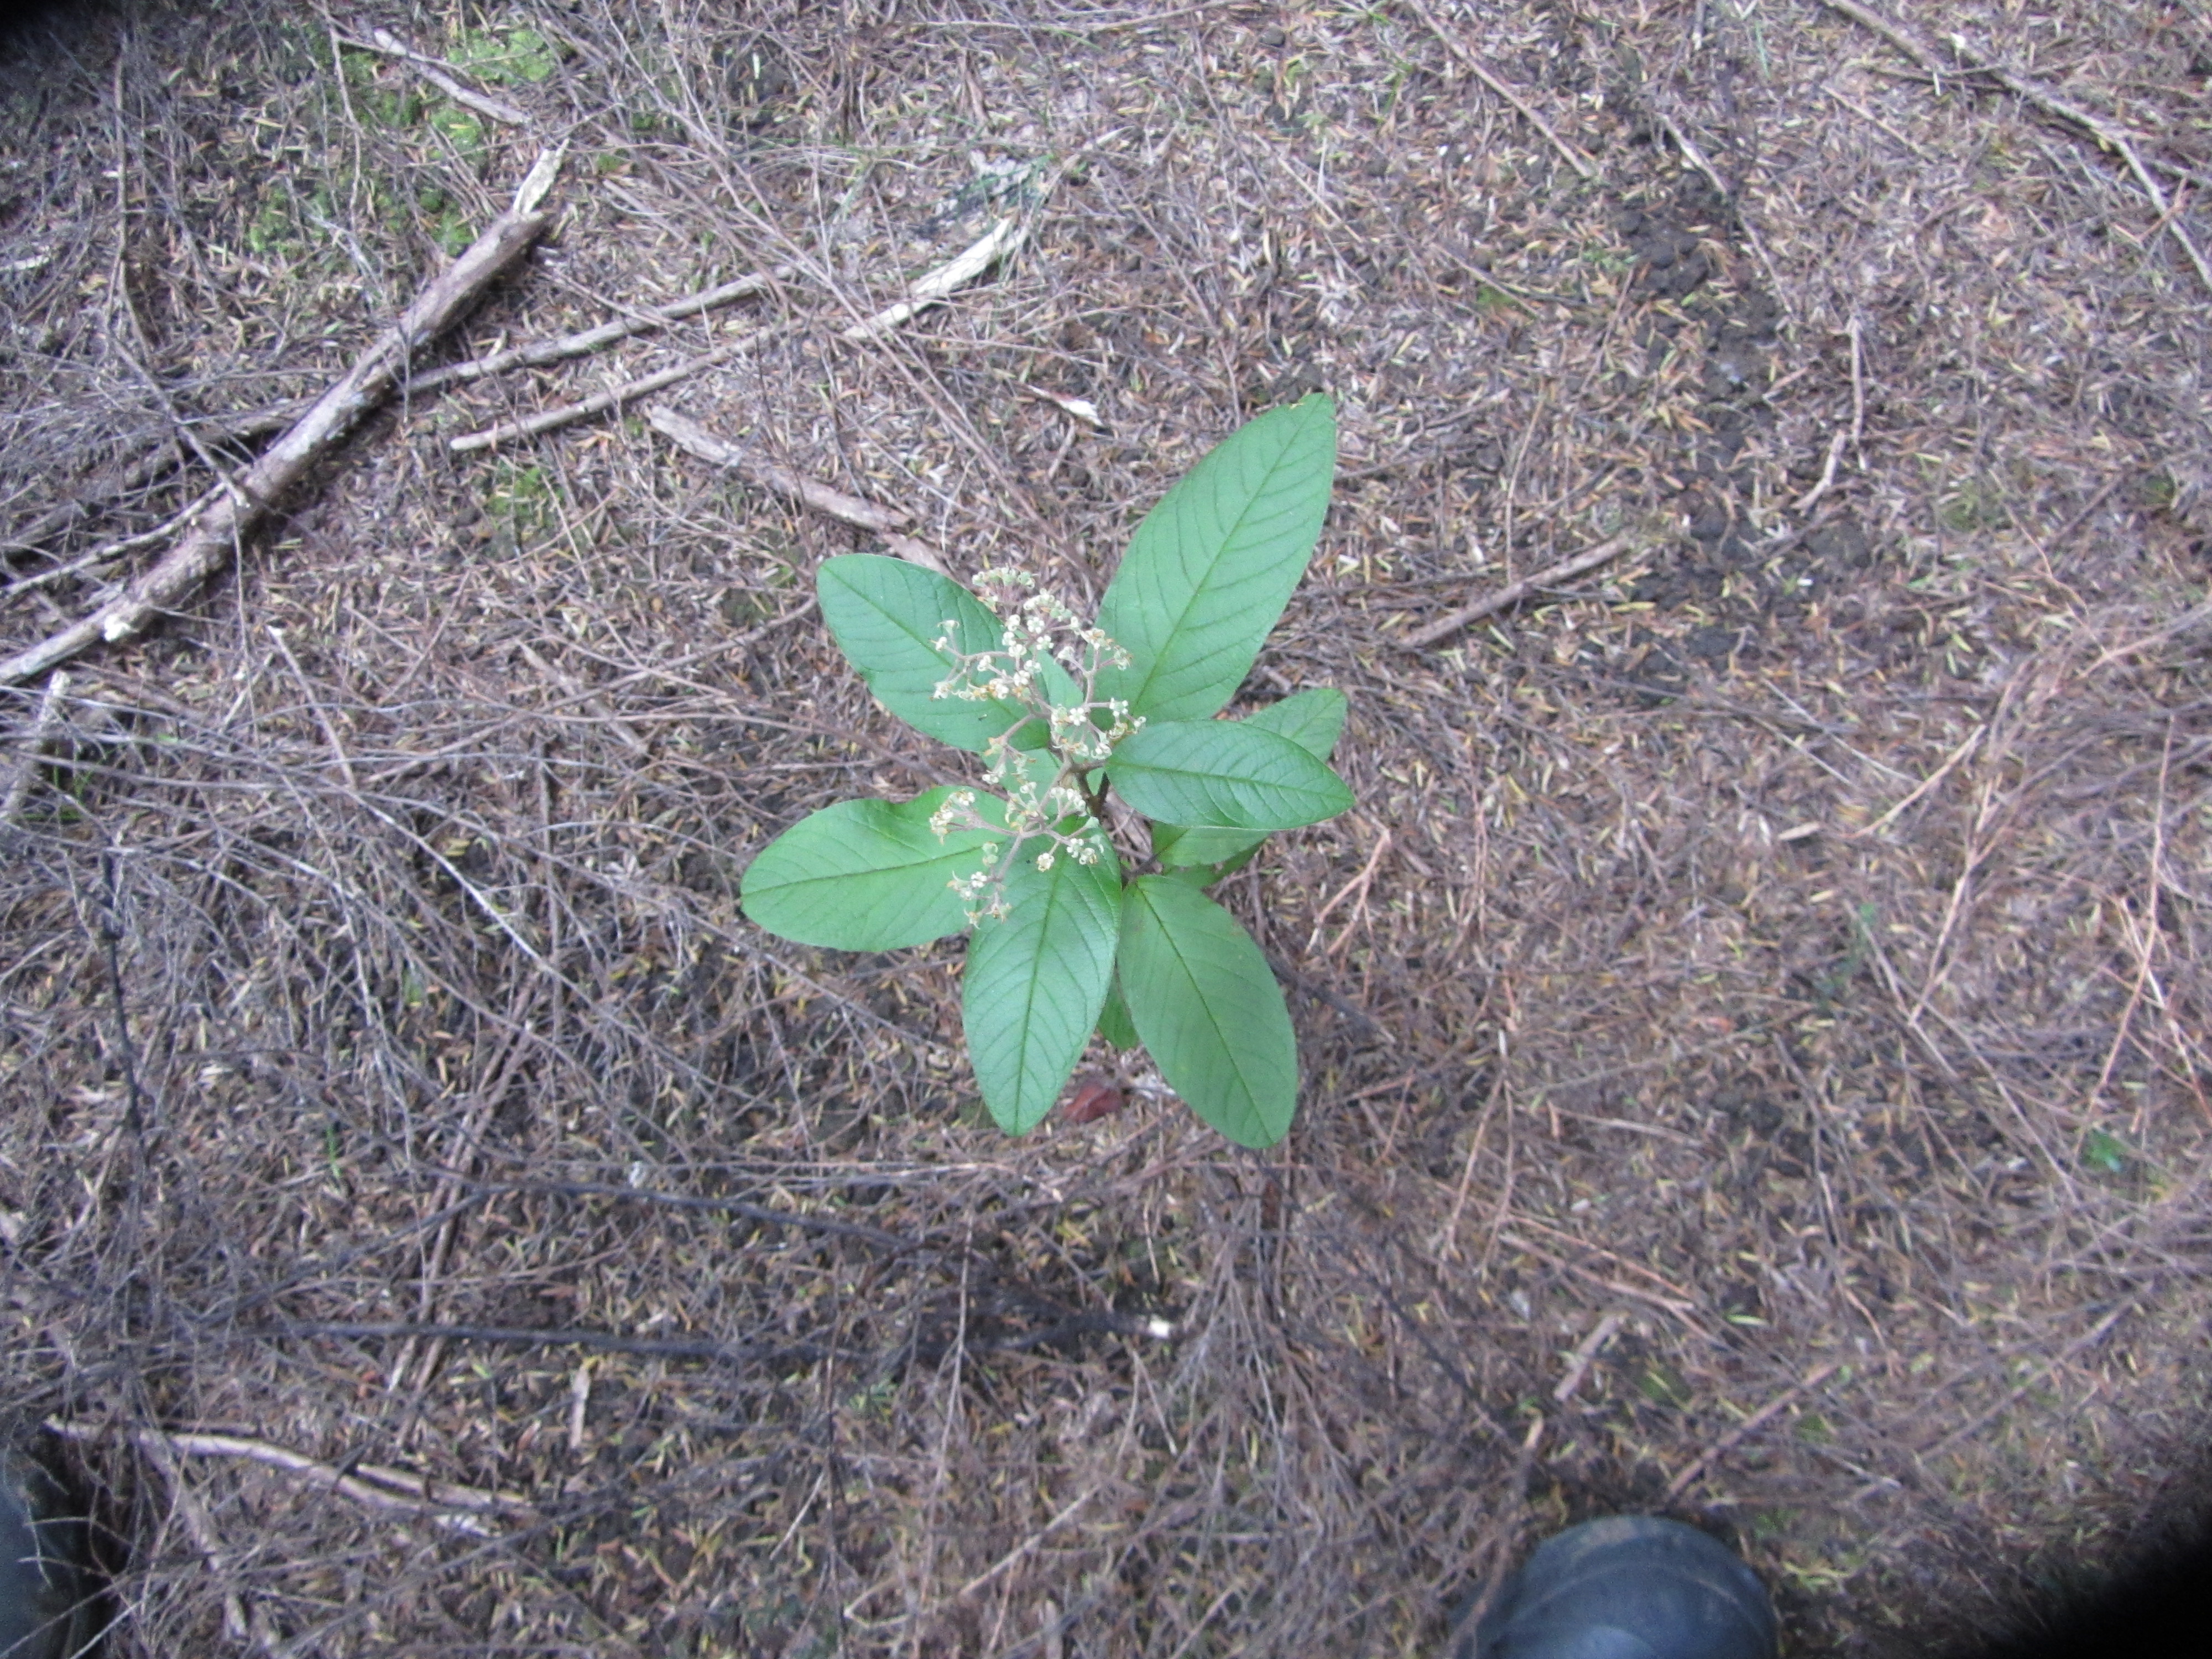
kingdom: Plantae
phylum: Tracheophyta
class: Magnoliopsida
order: Rosales
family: Rhamnaceae
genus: Pomaderris
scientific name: Pomaderris hamiltonii
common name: Pale-flowered kumarahou
